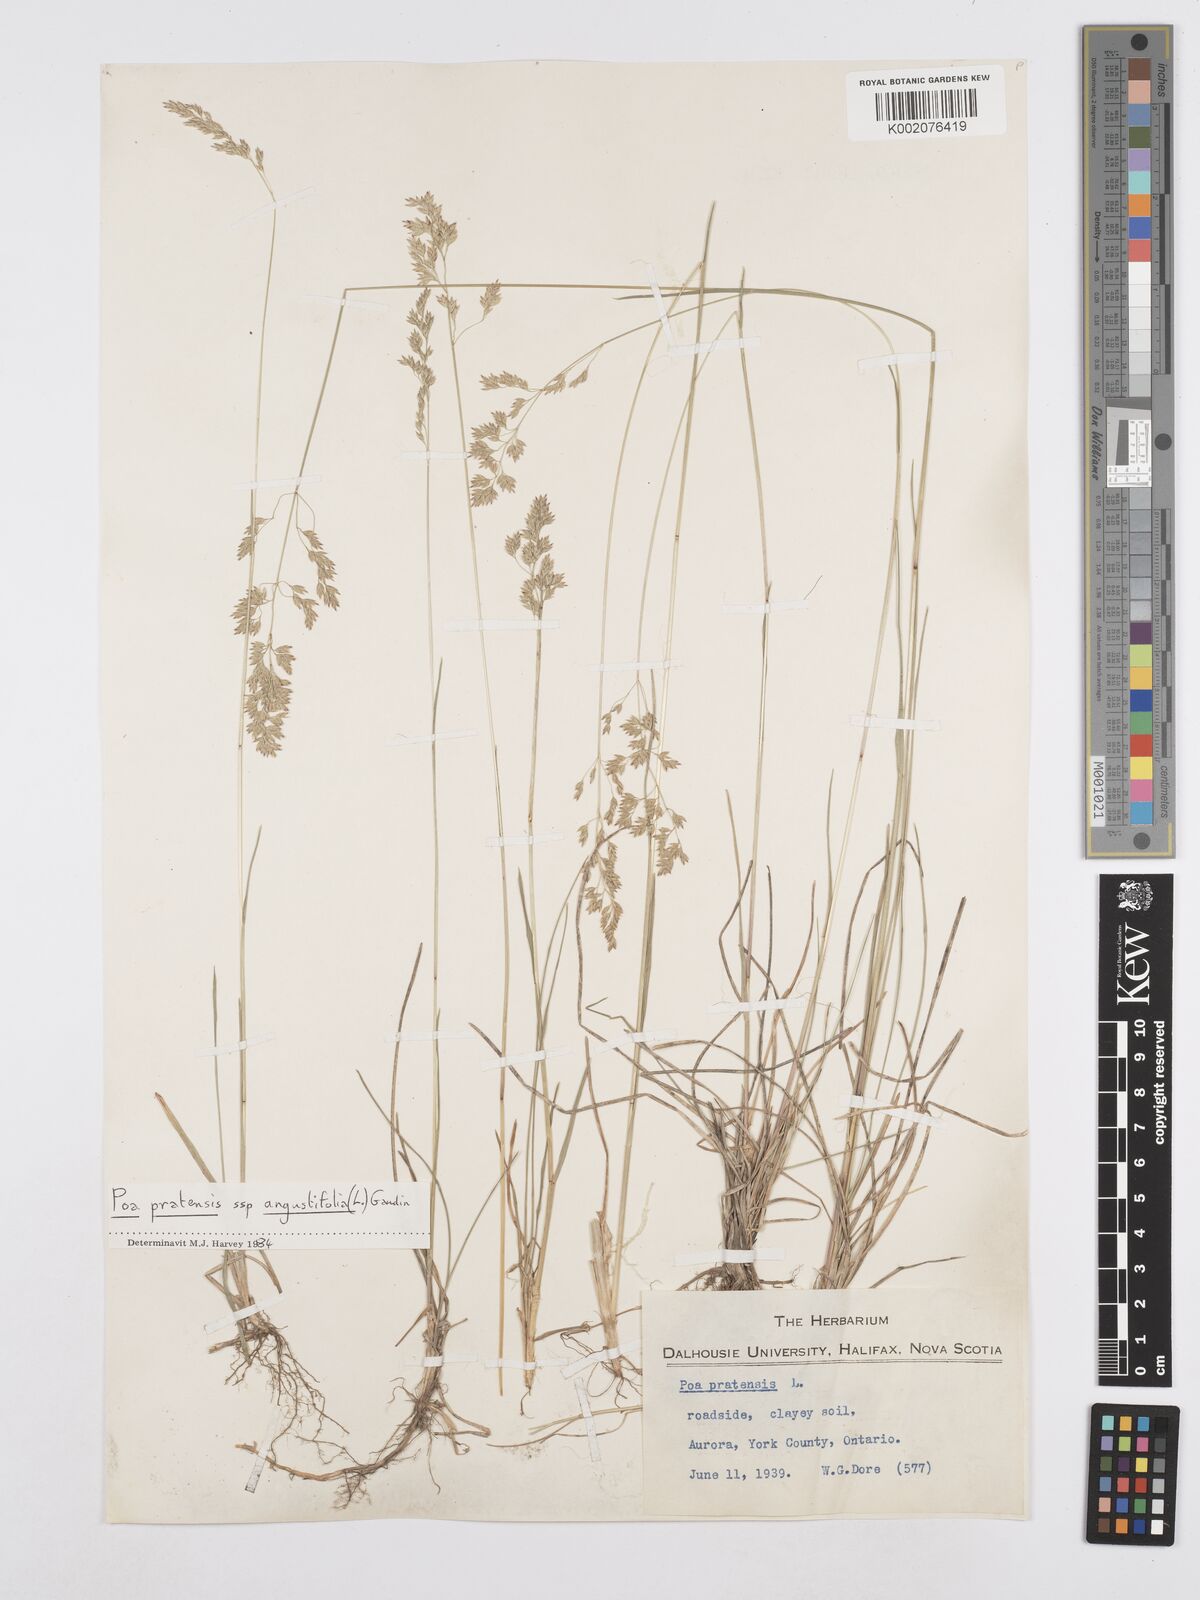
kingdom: Plantae
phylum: Tracheophyta
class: Liliopsida
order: Poales
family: Poaceae
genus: Poa
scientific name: Poa angustifolia
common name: Narrow-leaved meadow-grass
